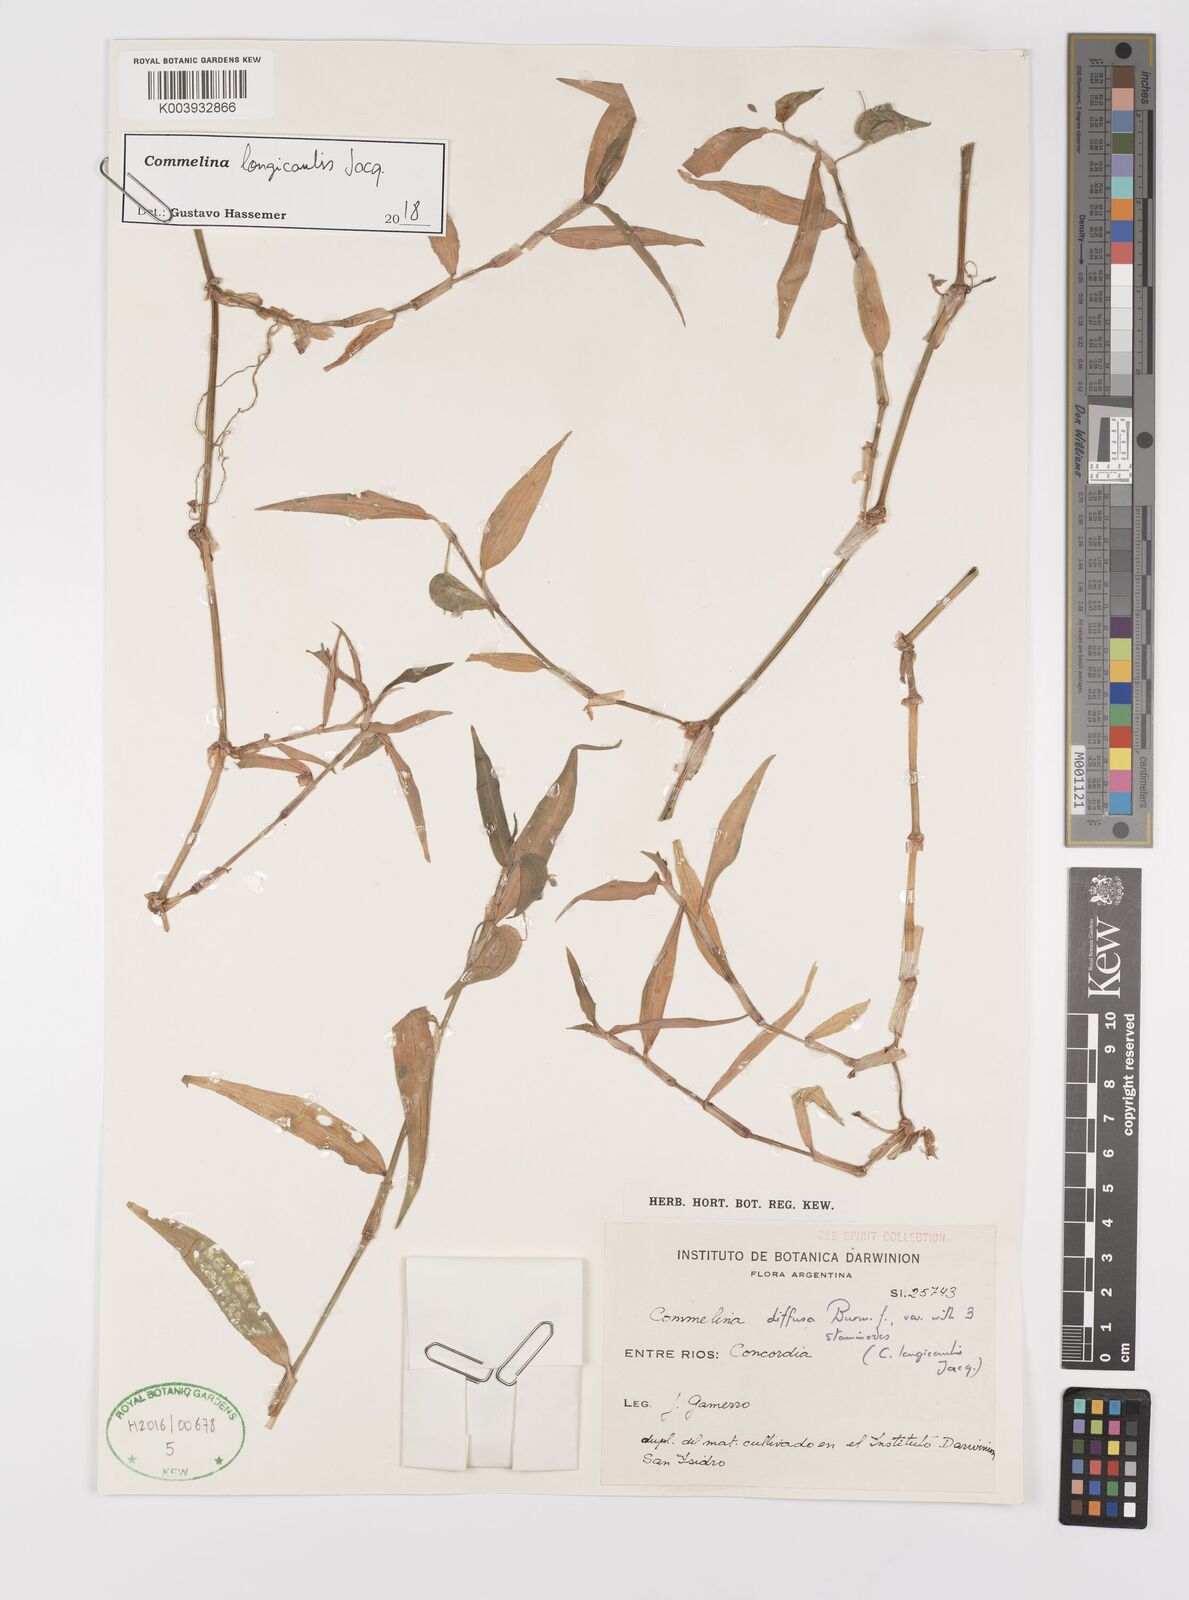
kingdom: Plantae
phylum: Tracheophyta
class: Liliopsida
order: Commelinales
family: Commelinaceae
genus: Commelina
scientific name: Commelina diffusa
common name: Climbing dayflower
